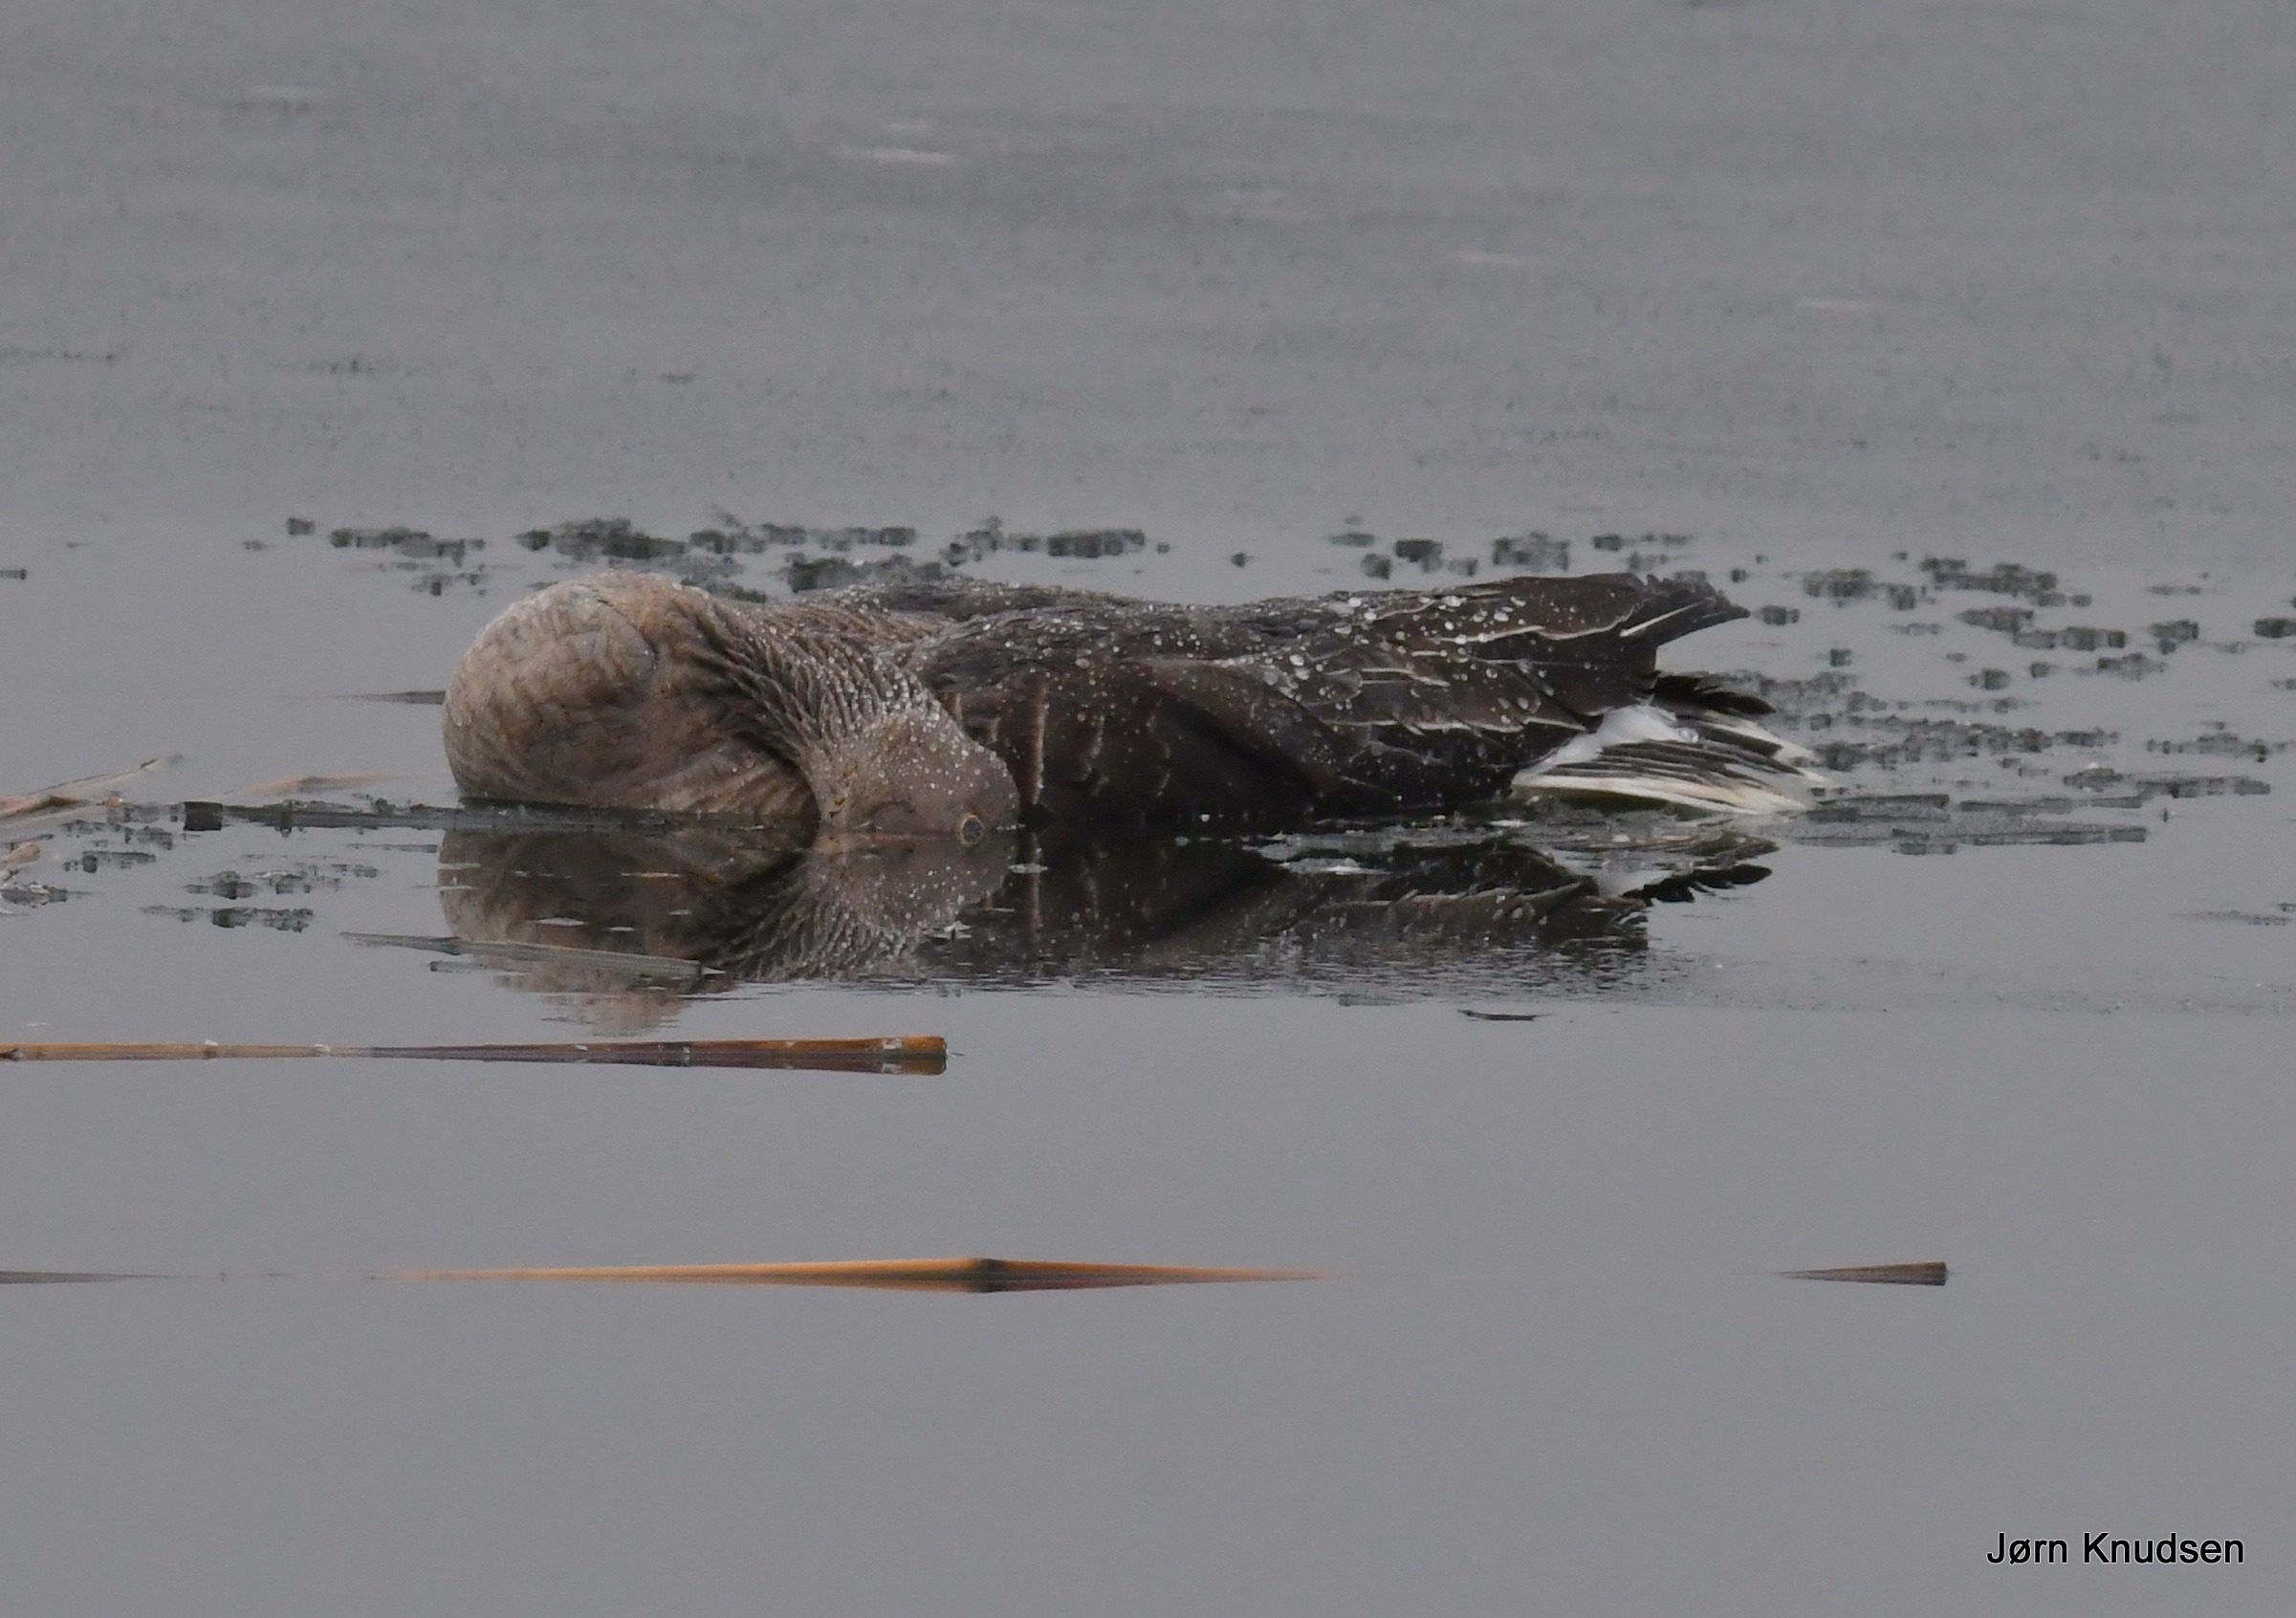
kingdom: Animalia
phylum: Chordata
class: Aves
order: Anseriformes
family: Anatidae
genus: Anser
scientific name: Anser anser
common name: Grågås
